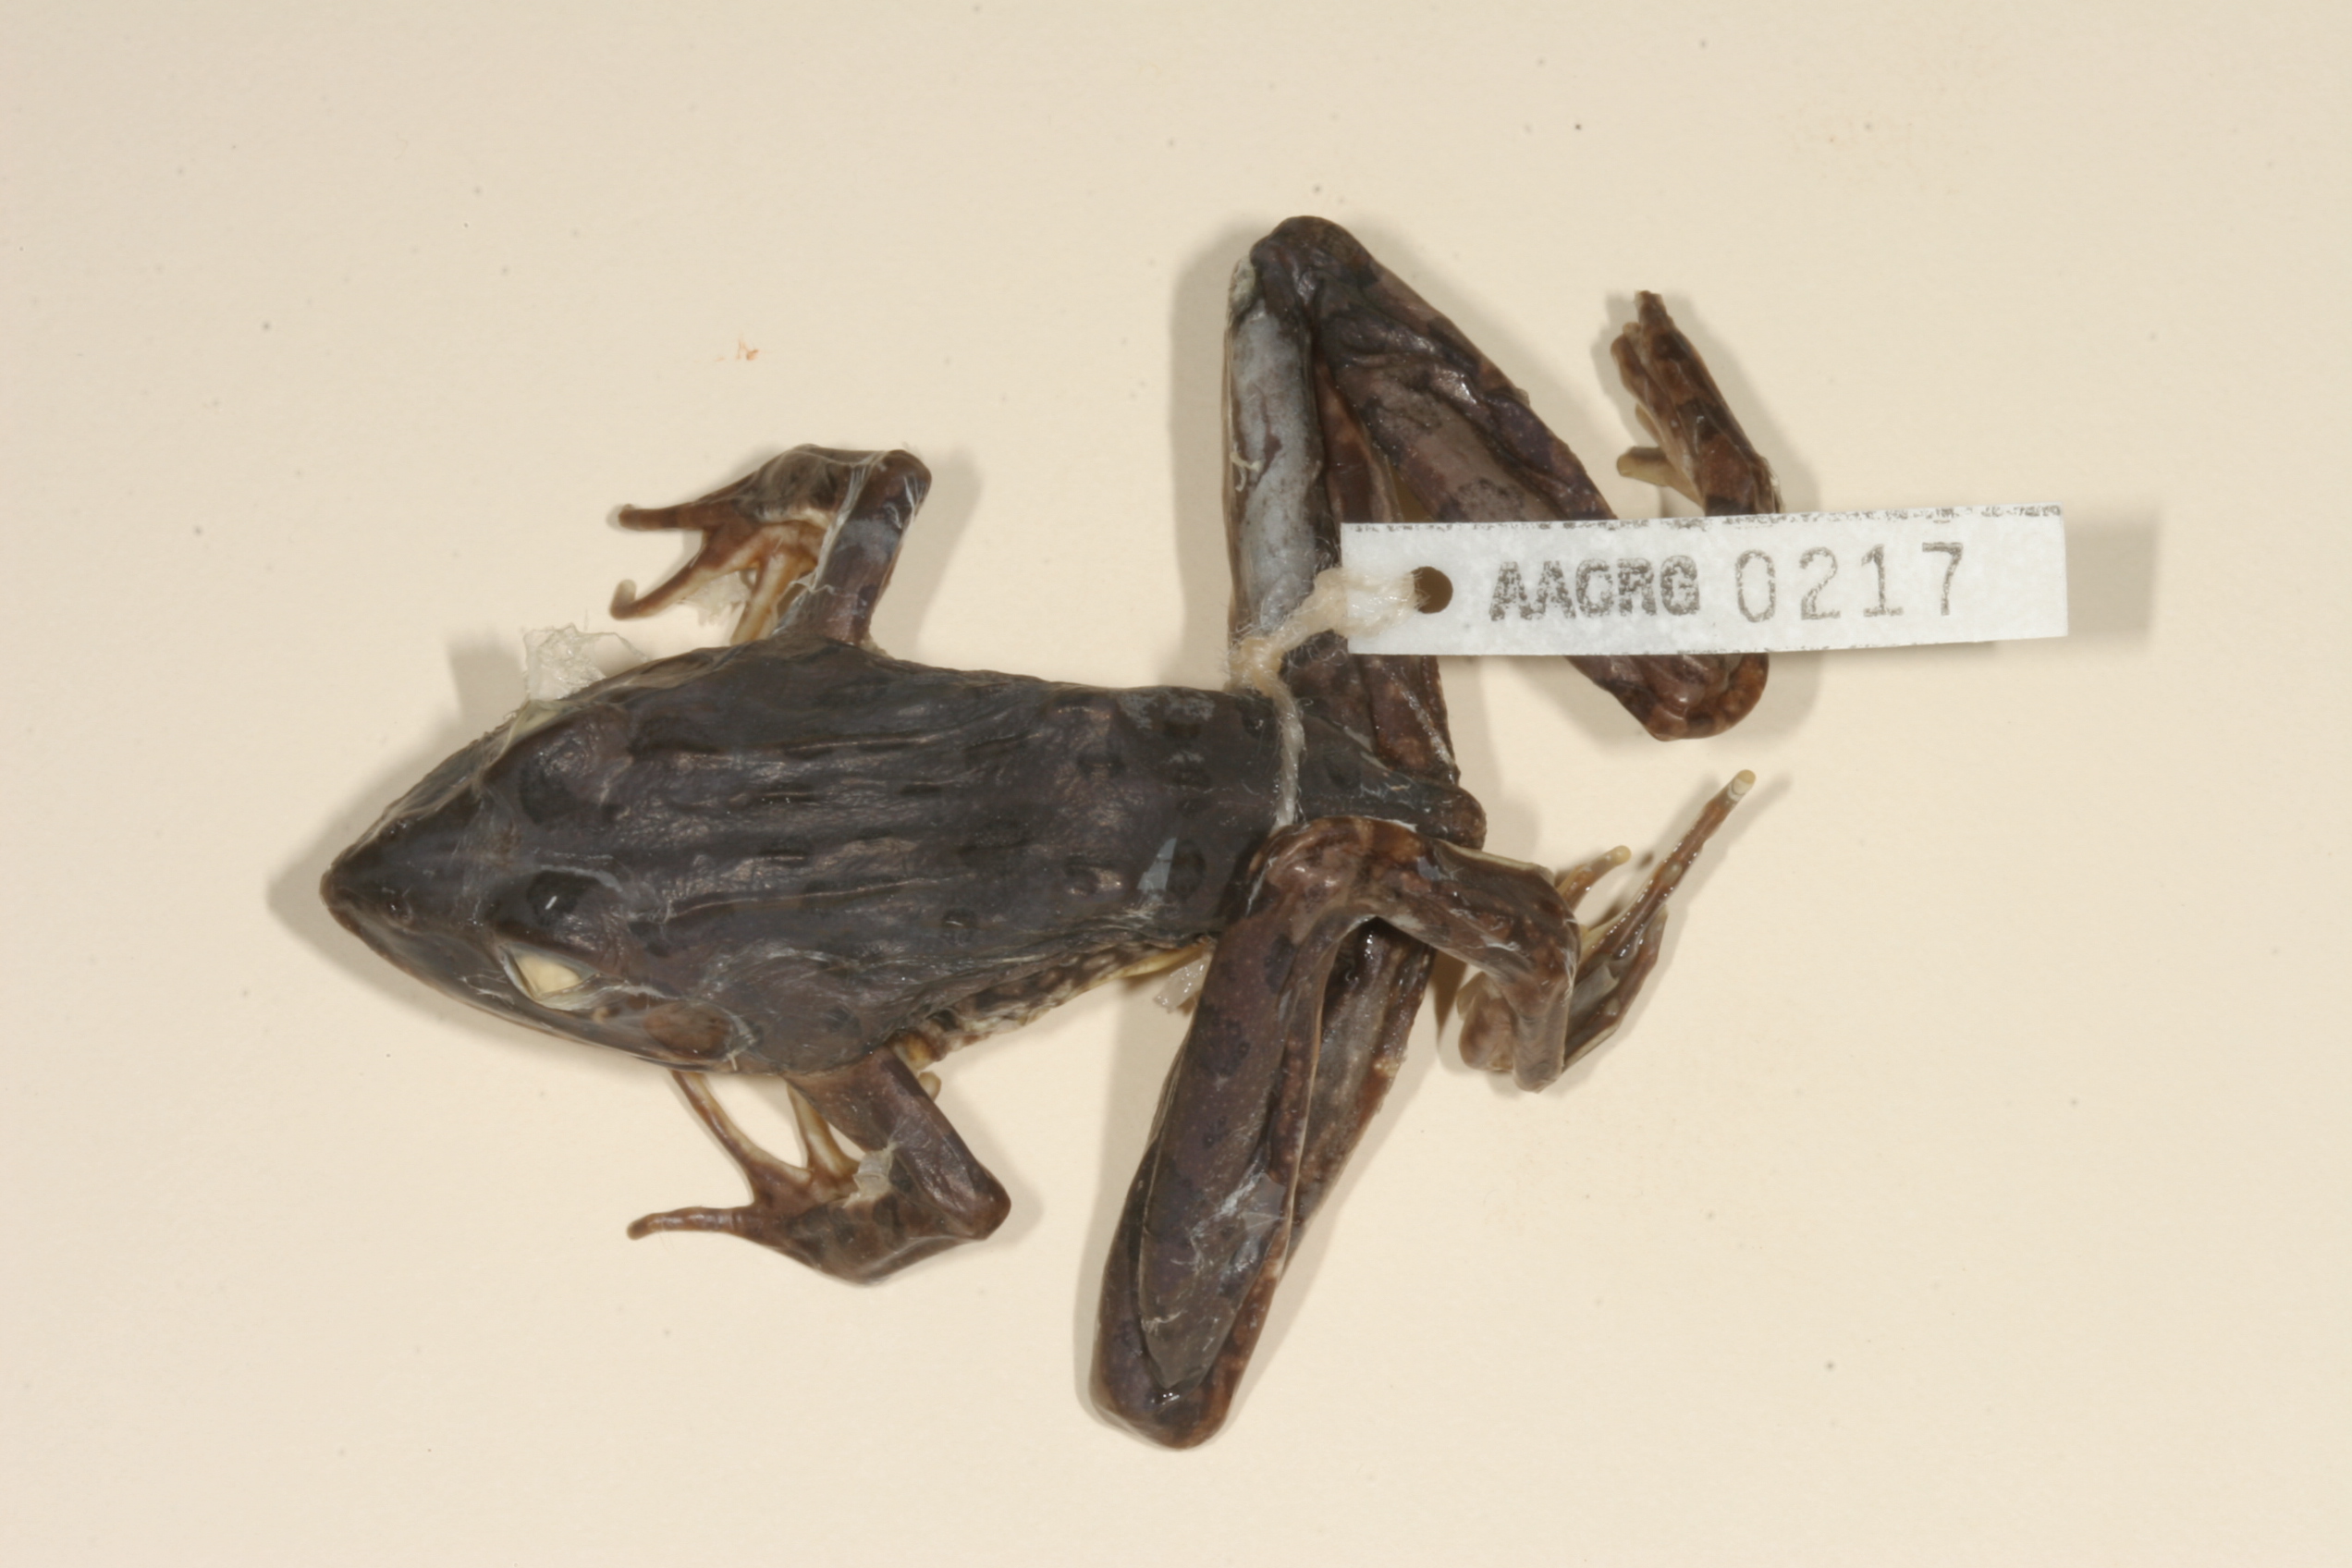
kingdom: Animalia
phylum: Chordata
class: Amphibia
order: Anura
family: Pyxicephalidae
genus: Amietia
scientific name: Amietia angolensis
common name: Dusky-throated frog
